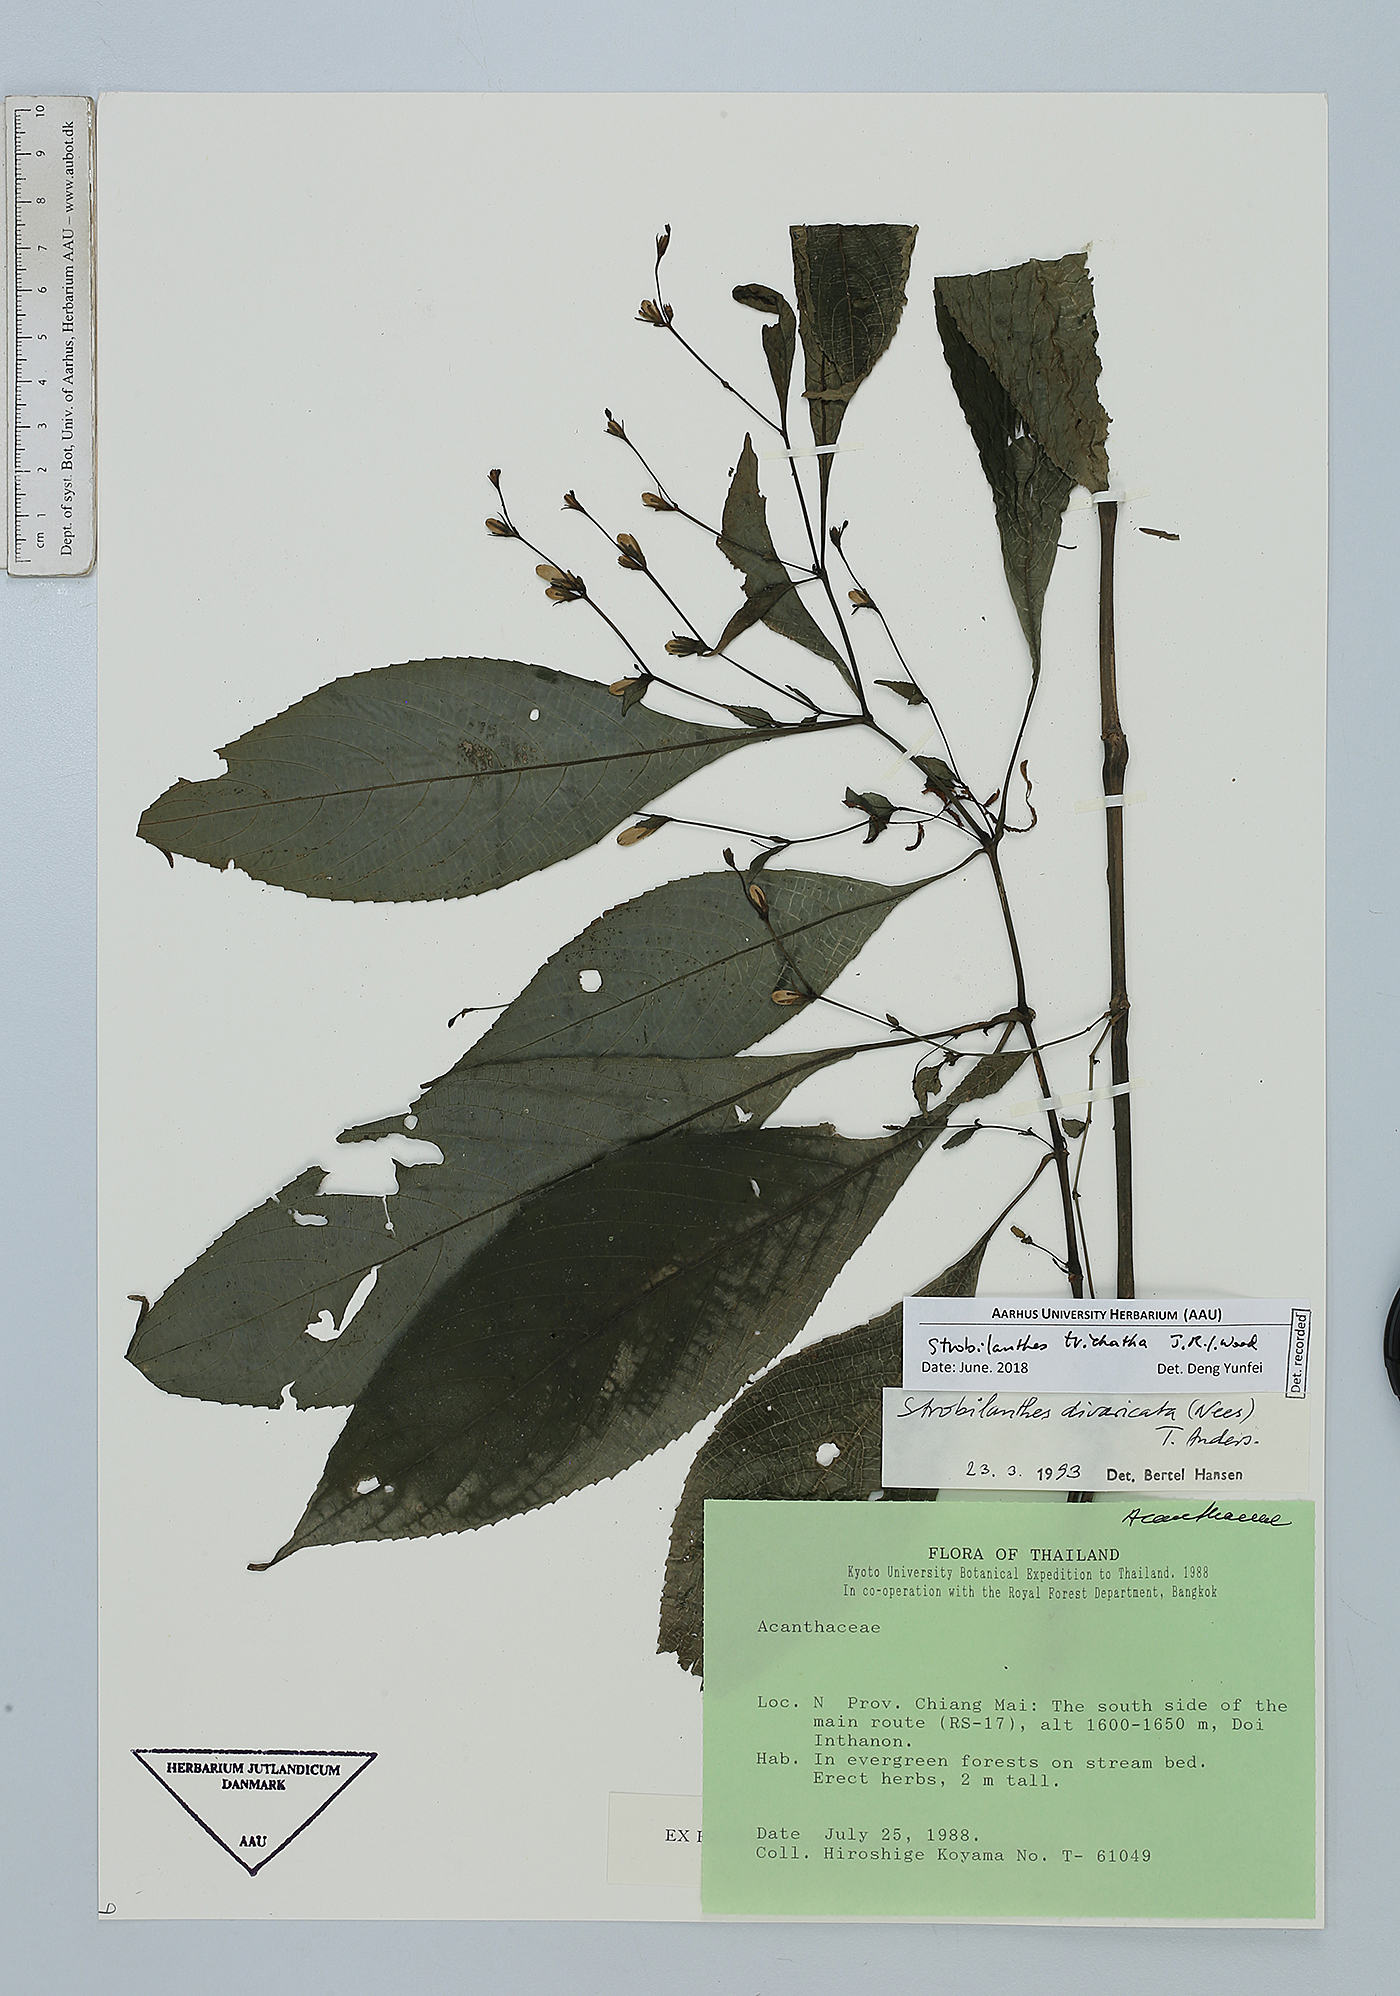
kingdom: Plantae
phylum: Tracheophyta
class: Magnoliopsida
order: Lamiales
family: Acanthaceae
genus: Strobilanthes
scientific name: Strobilanthes trichantha
